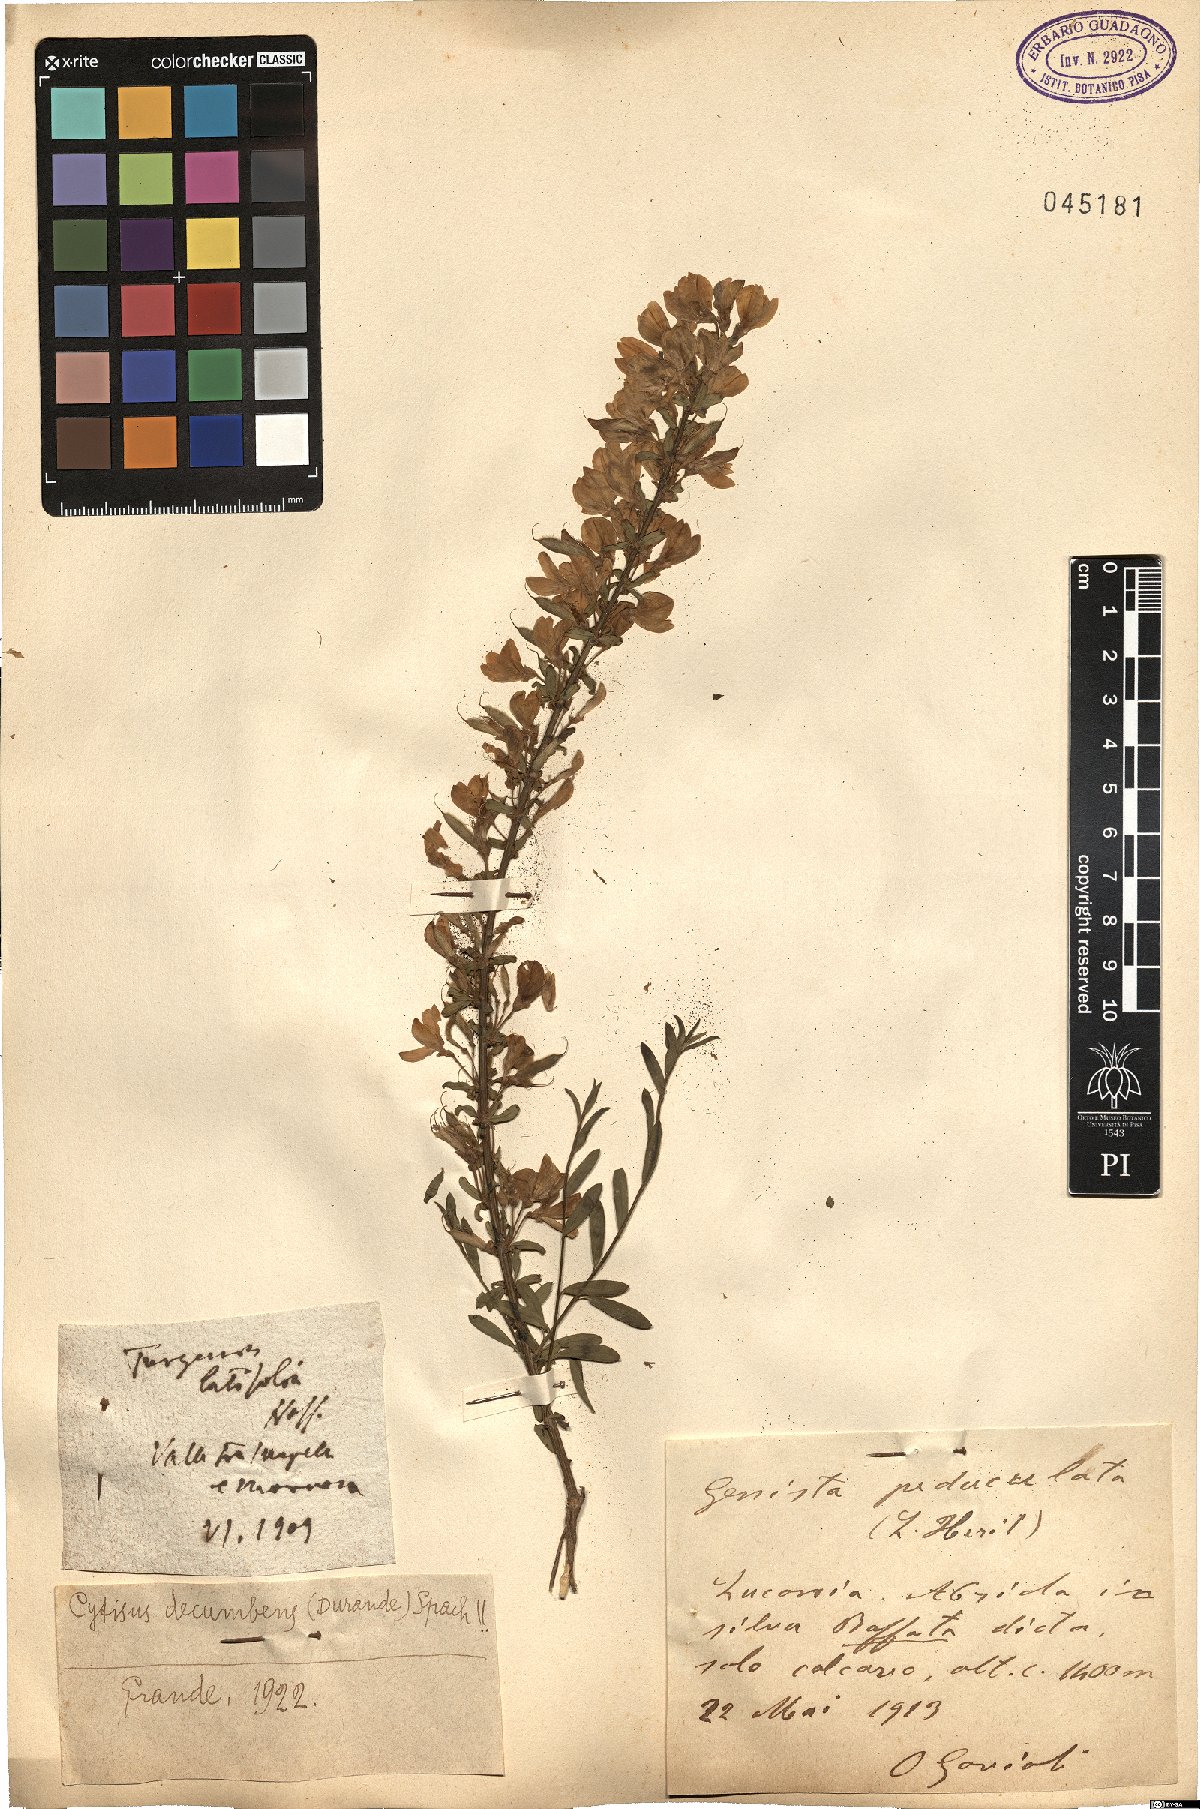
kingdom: Plantae
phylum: Tracheophyta
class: Magnoliopsida
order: Fabales
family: Fabaceae
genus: Cytisus
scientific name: Cytisus decumbens
